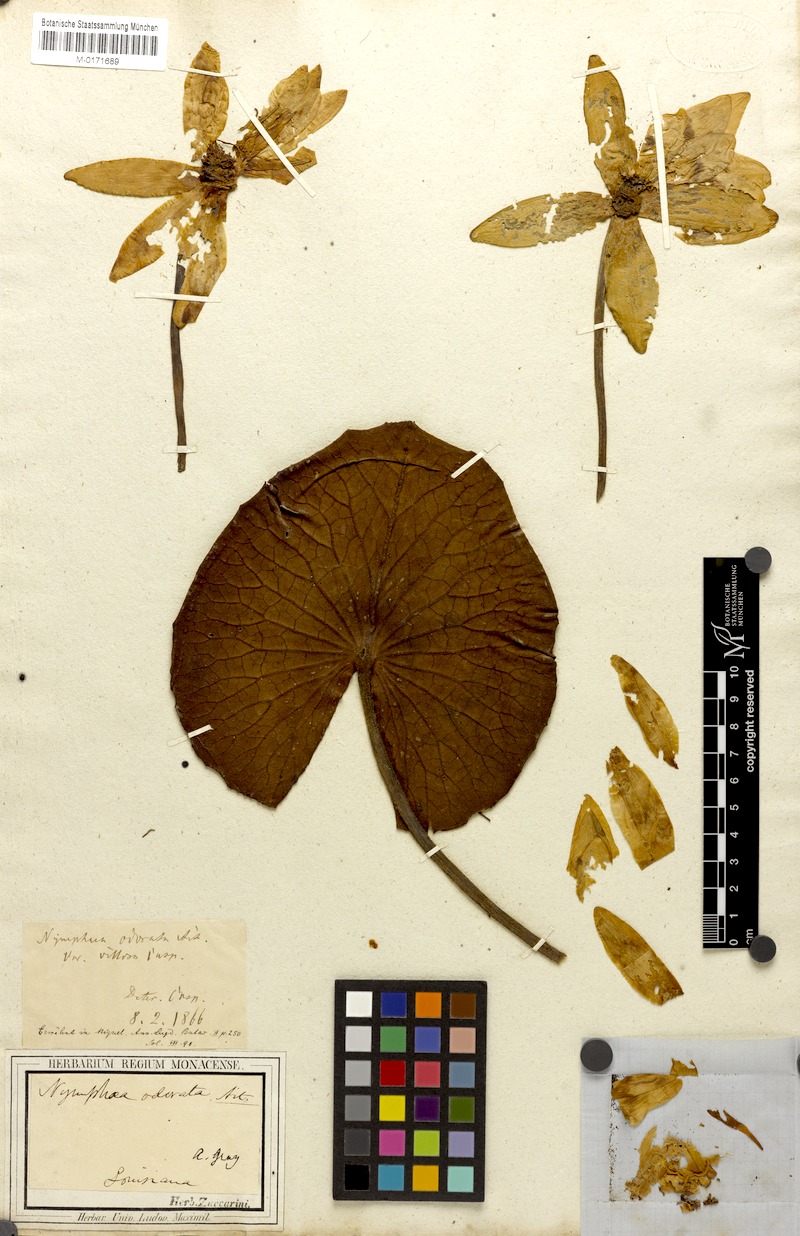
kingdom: Plantae
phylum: Tracheophyta
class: Magnoliopsida
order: Nymphaeales
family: Nymphaeaceae
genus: Nymphaea
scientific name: Nymphaea odorata
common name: Fragrant water-lily
